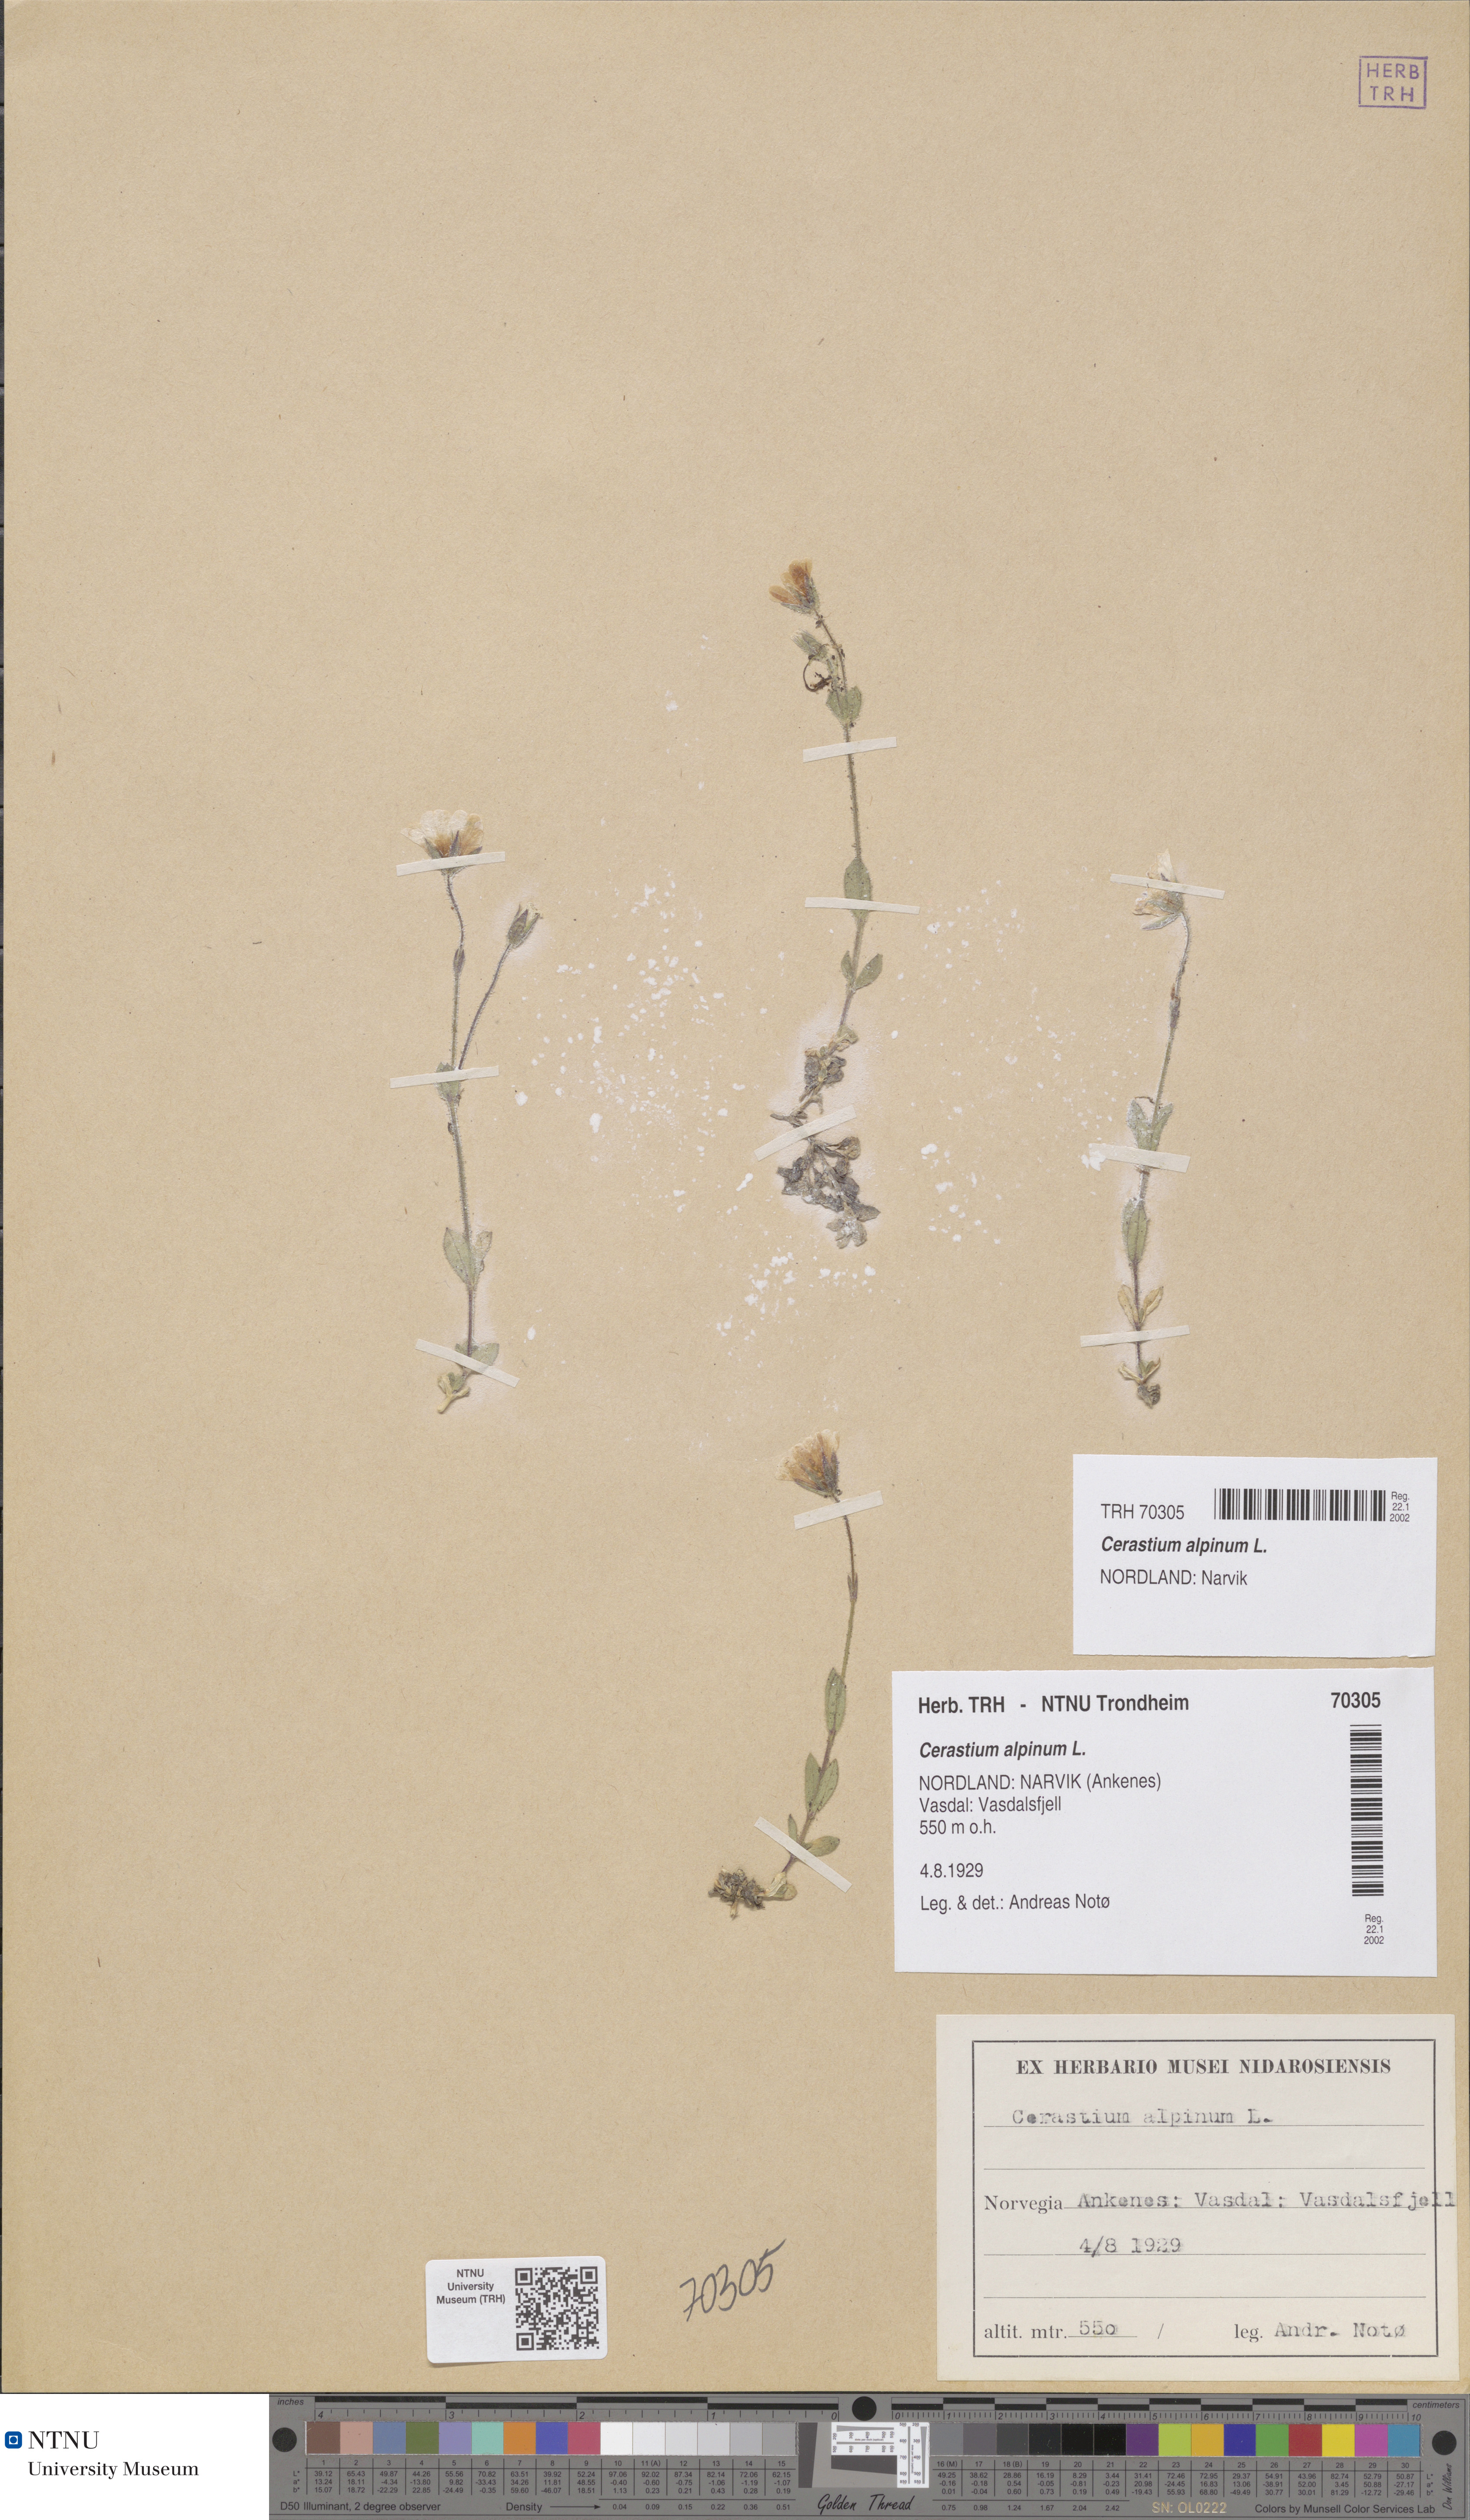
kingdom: Plantae
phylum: Tracheophyta
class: Magnoliopsida
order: Caryophyllales
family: Caryophyllaceae
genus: Cerastium
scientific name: Cerastium alpinum
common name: Alpine mouse-ear
